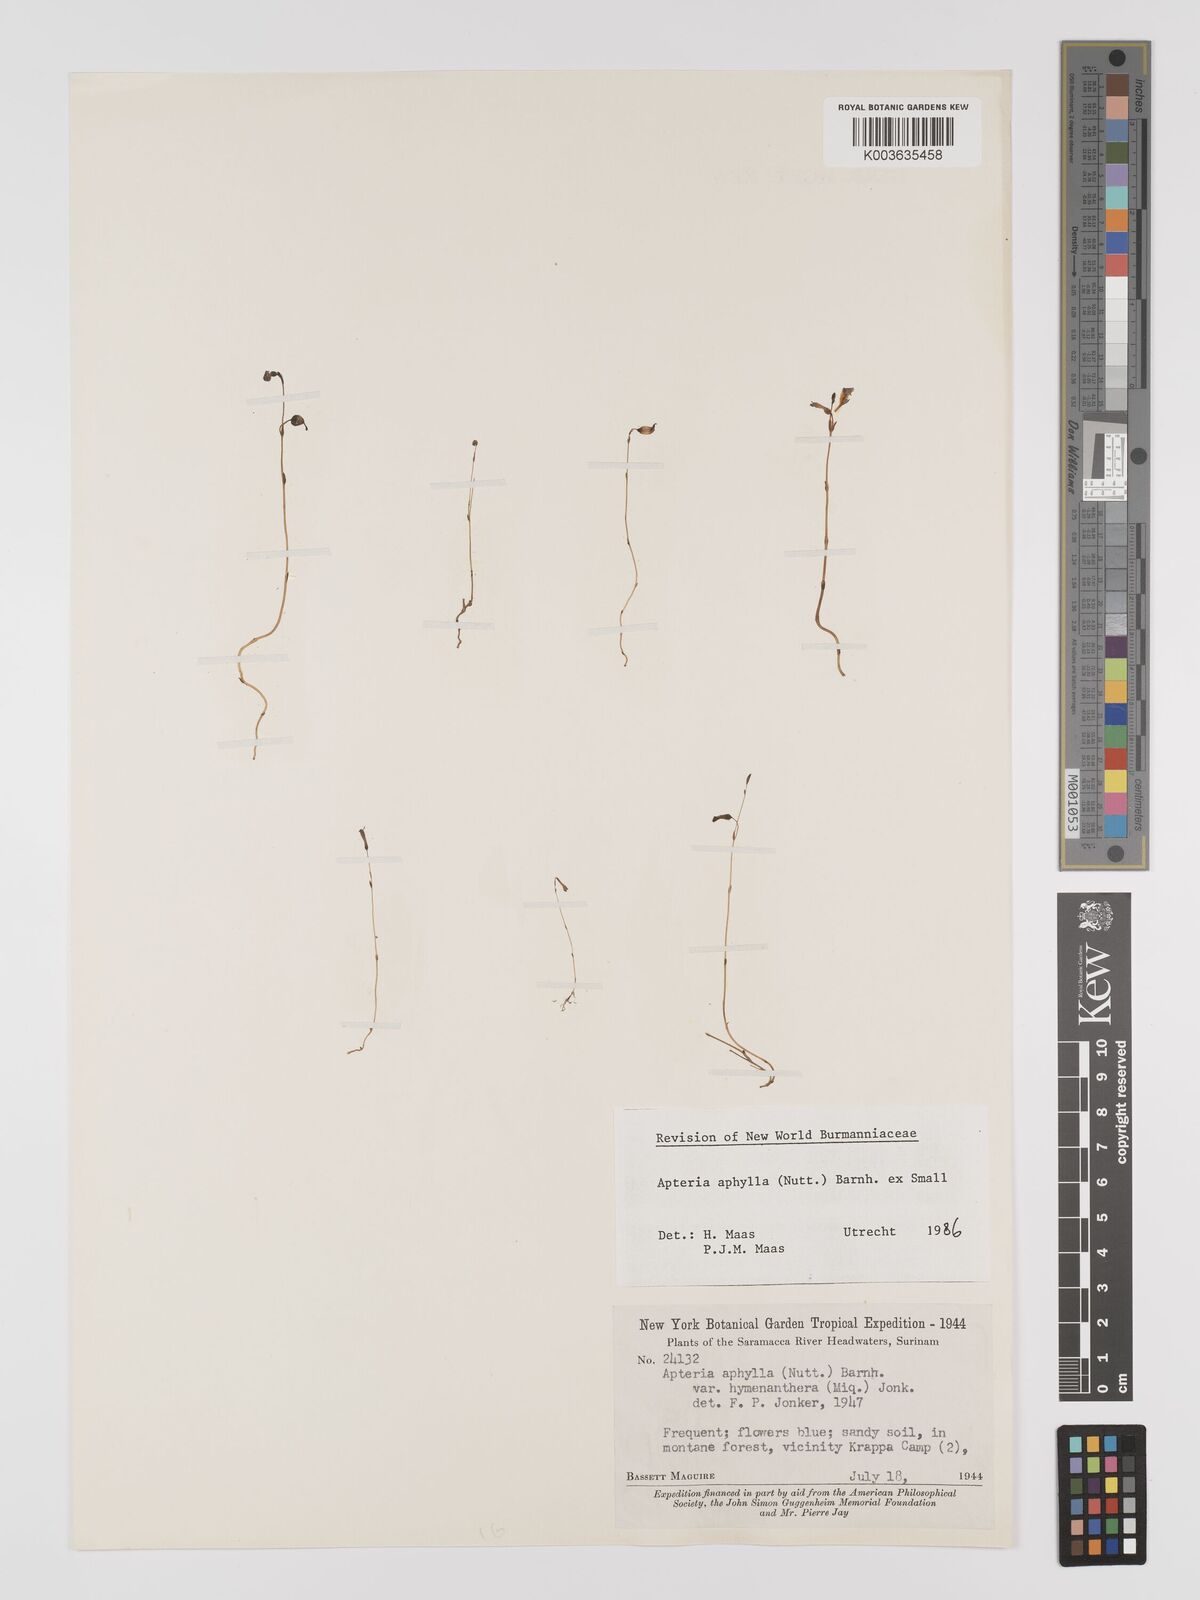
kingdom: Plantae
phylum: Tracheophyta
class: Liliopsida
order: Dioscoreales
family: Burmanniaceae
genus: Apteria
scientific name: Apteria aphylla
